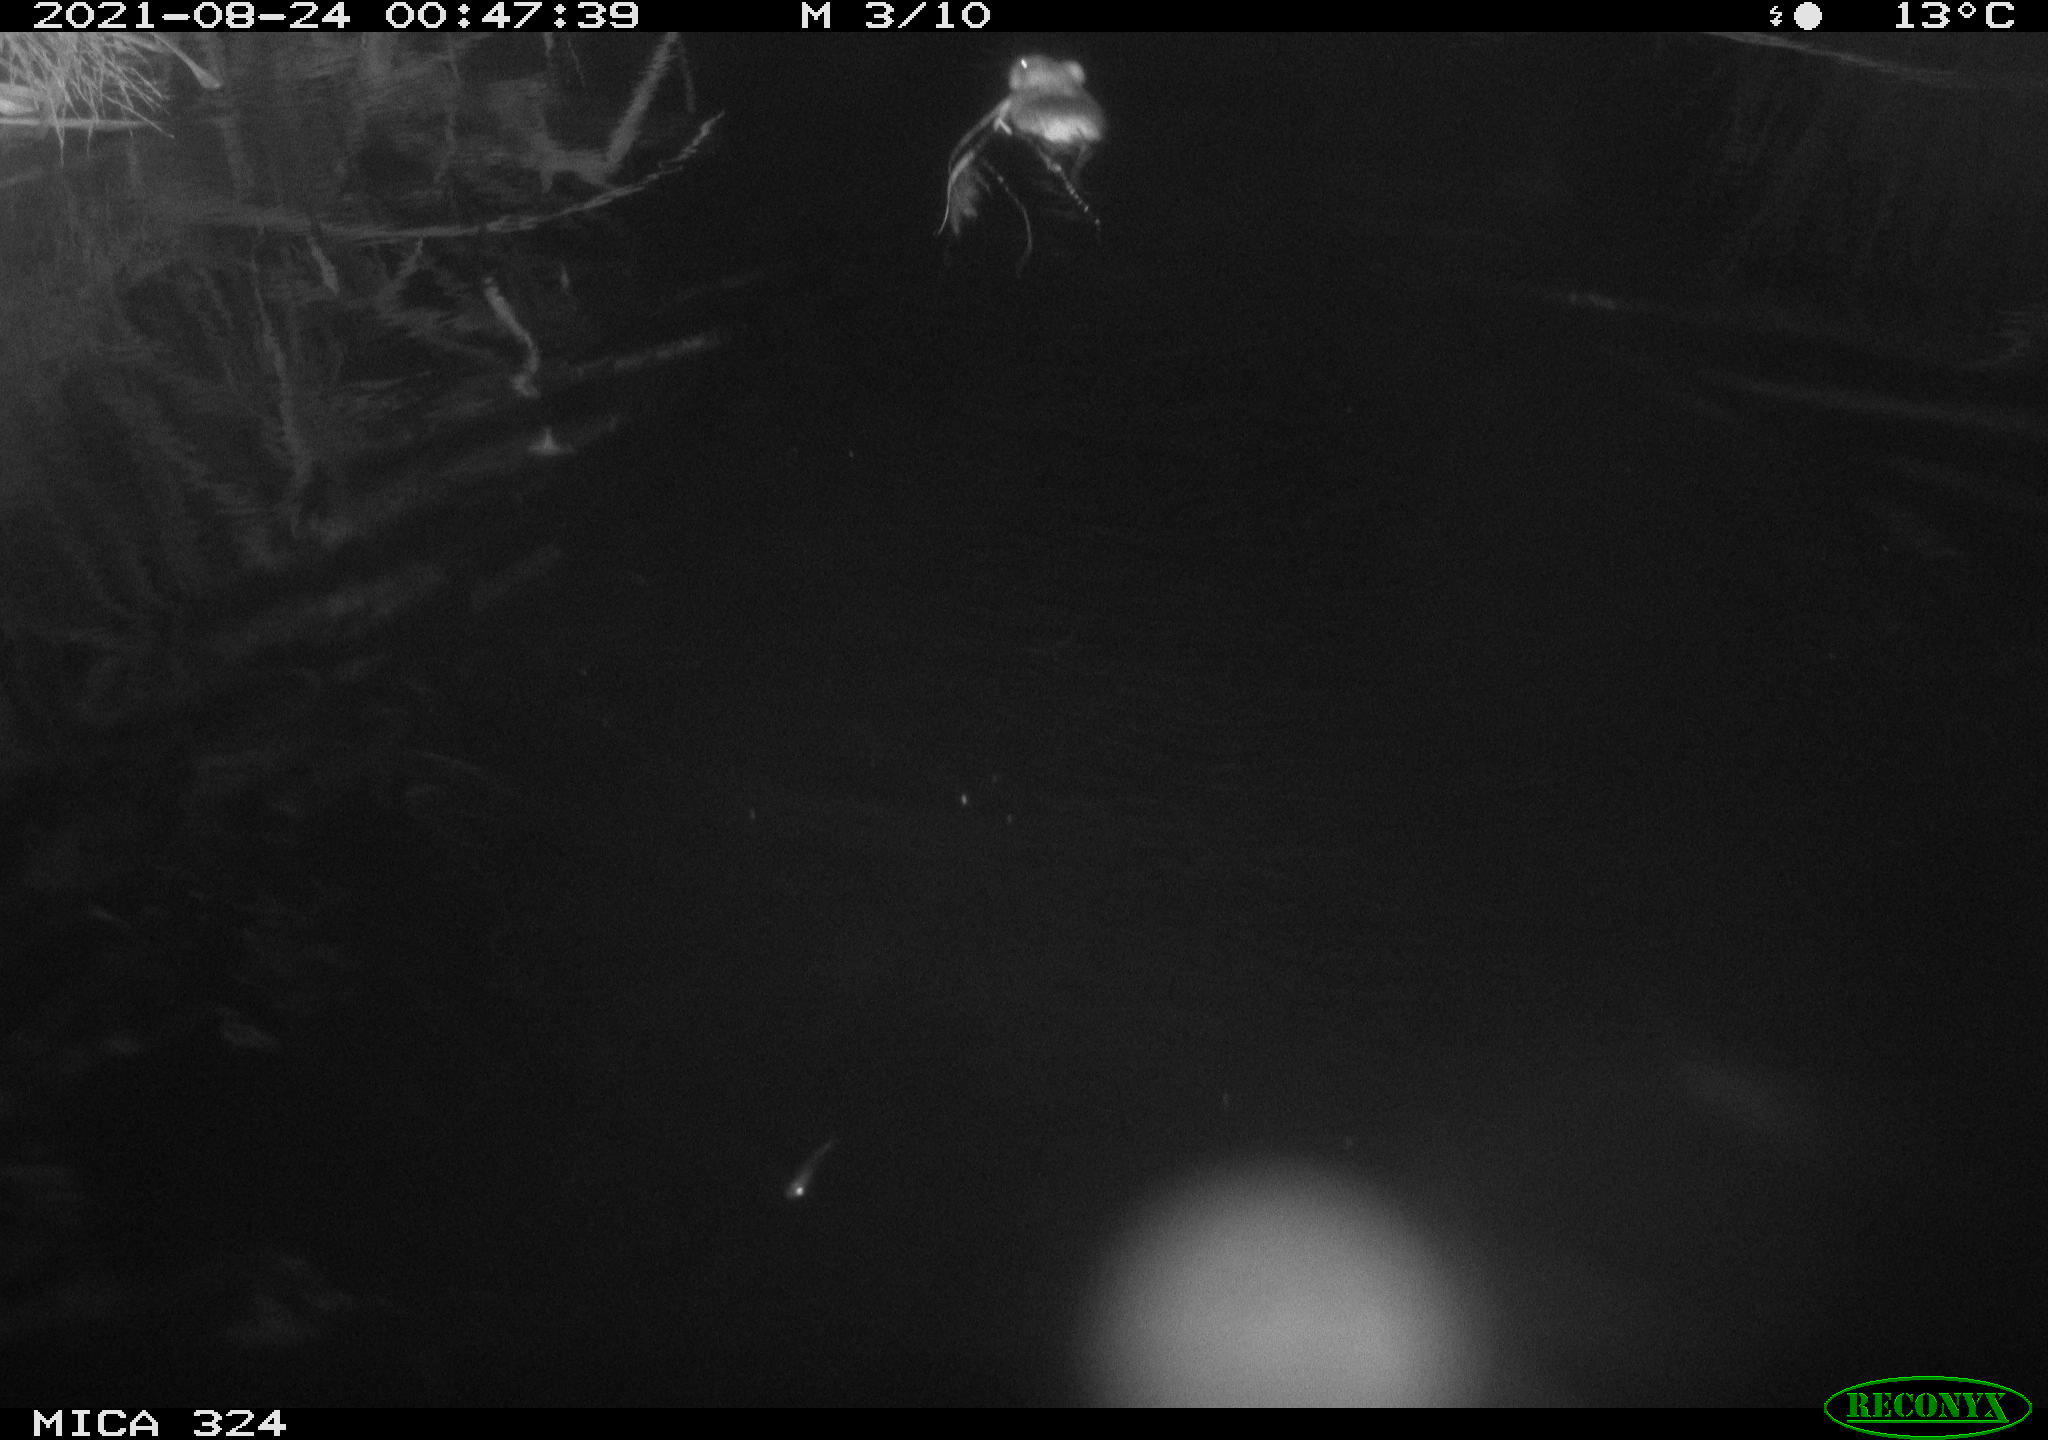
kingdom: Animalia
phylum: Chordata
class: Mammalia
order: Rodentia
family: Cricetidae
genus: Ondatra
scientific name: Ondatra zibethicus
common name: Muskrat
